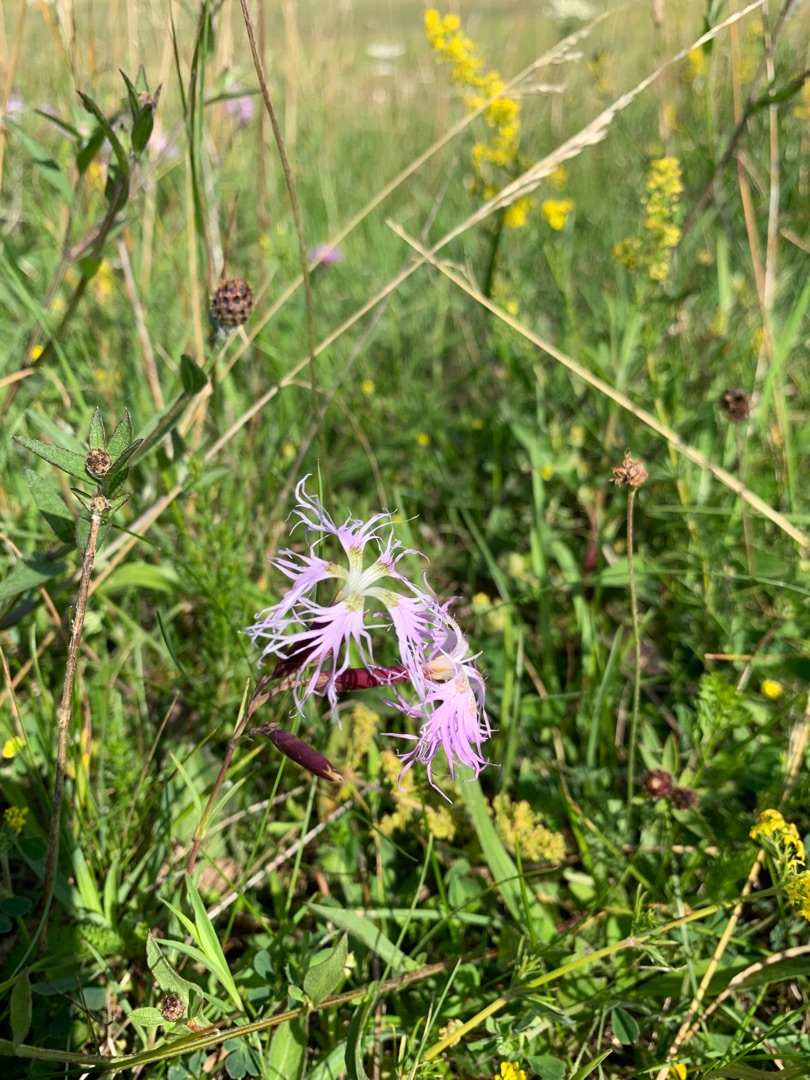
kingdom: Plantae
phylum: Tracheophyta
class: Magnoliopsida
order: Caryophyllales
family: Caryophyllaceae
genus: Dianthus
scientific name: Dianthus superbus
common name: Strand-nellike
